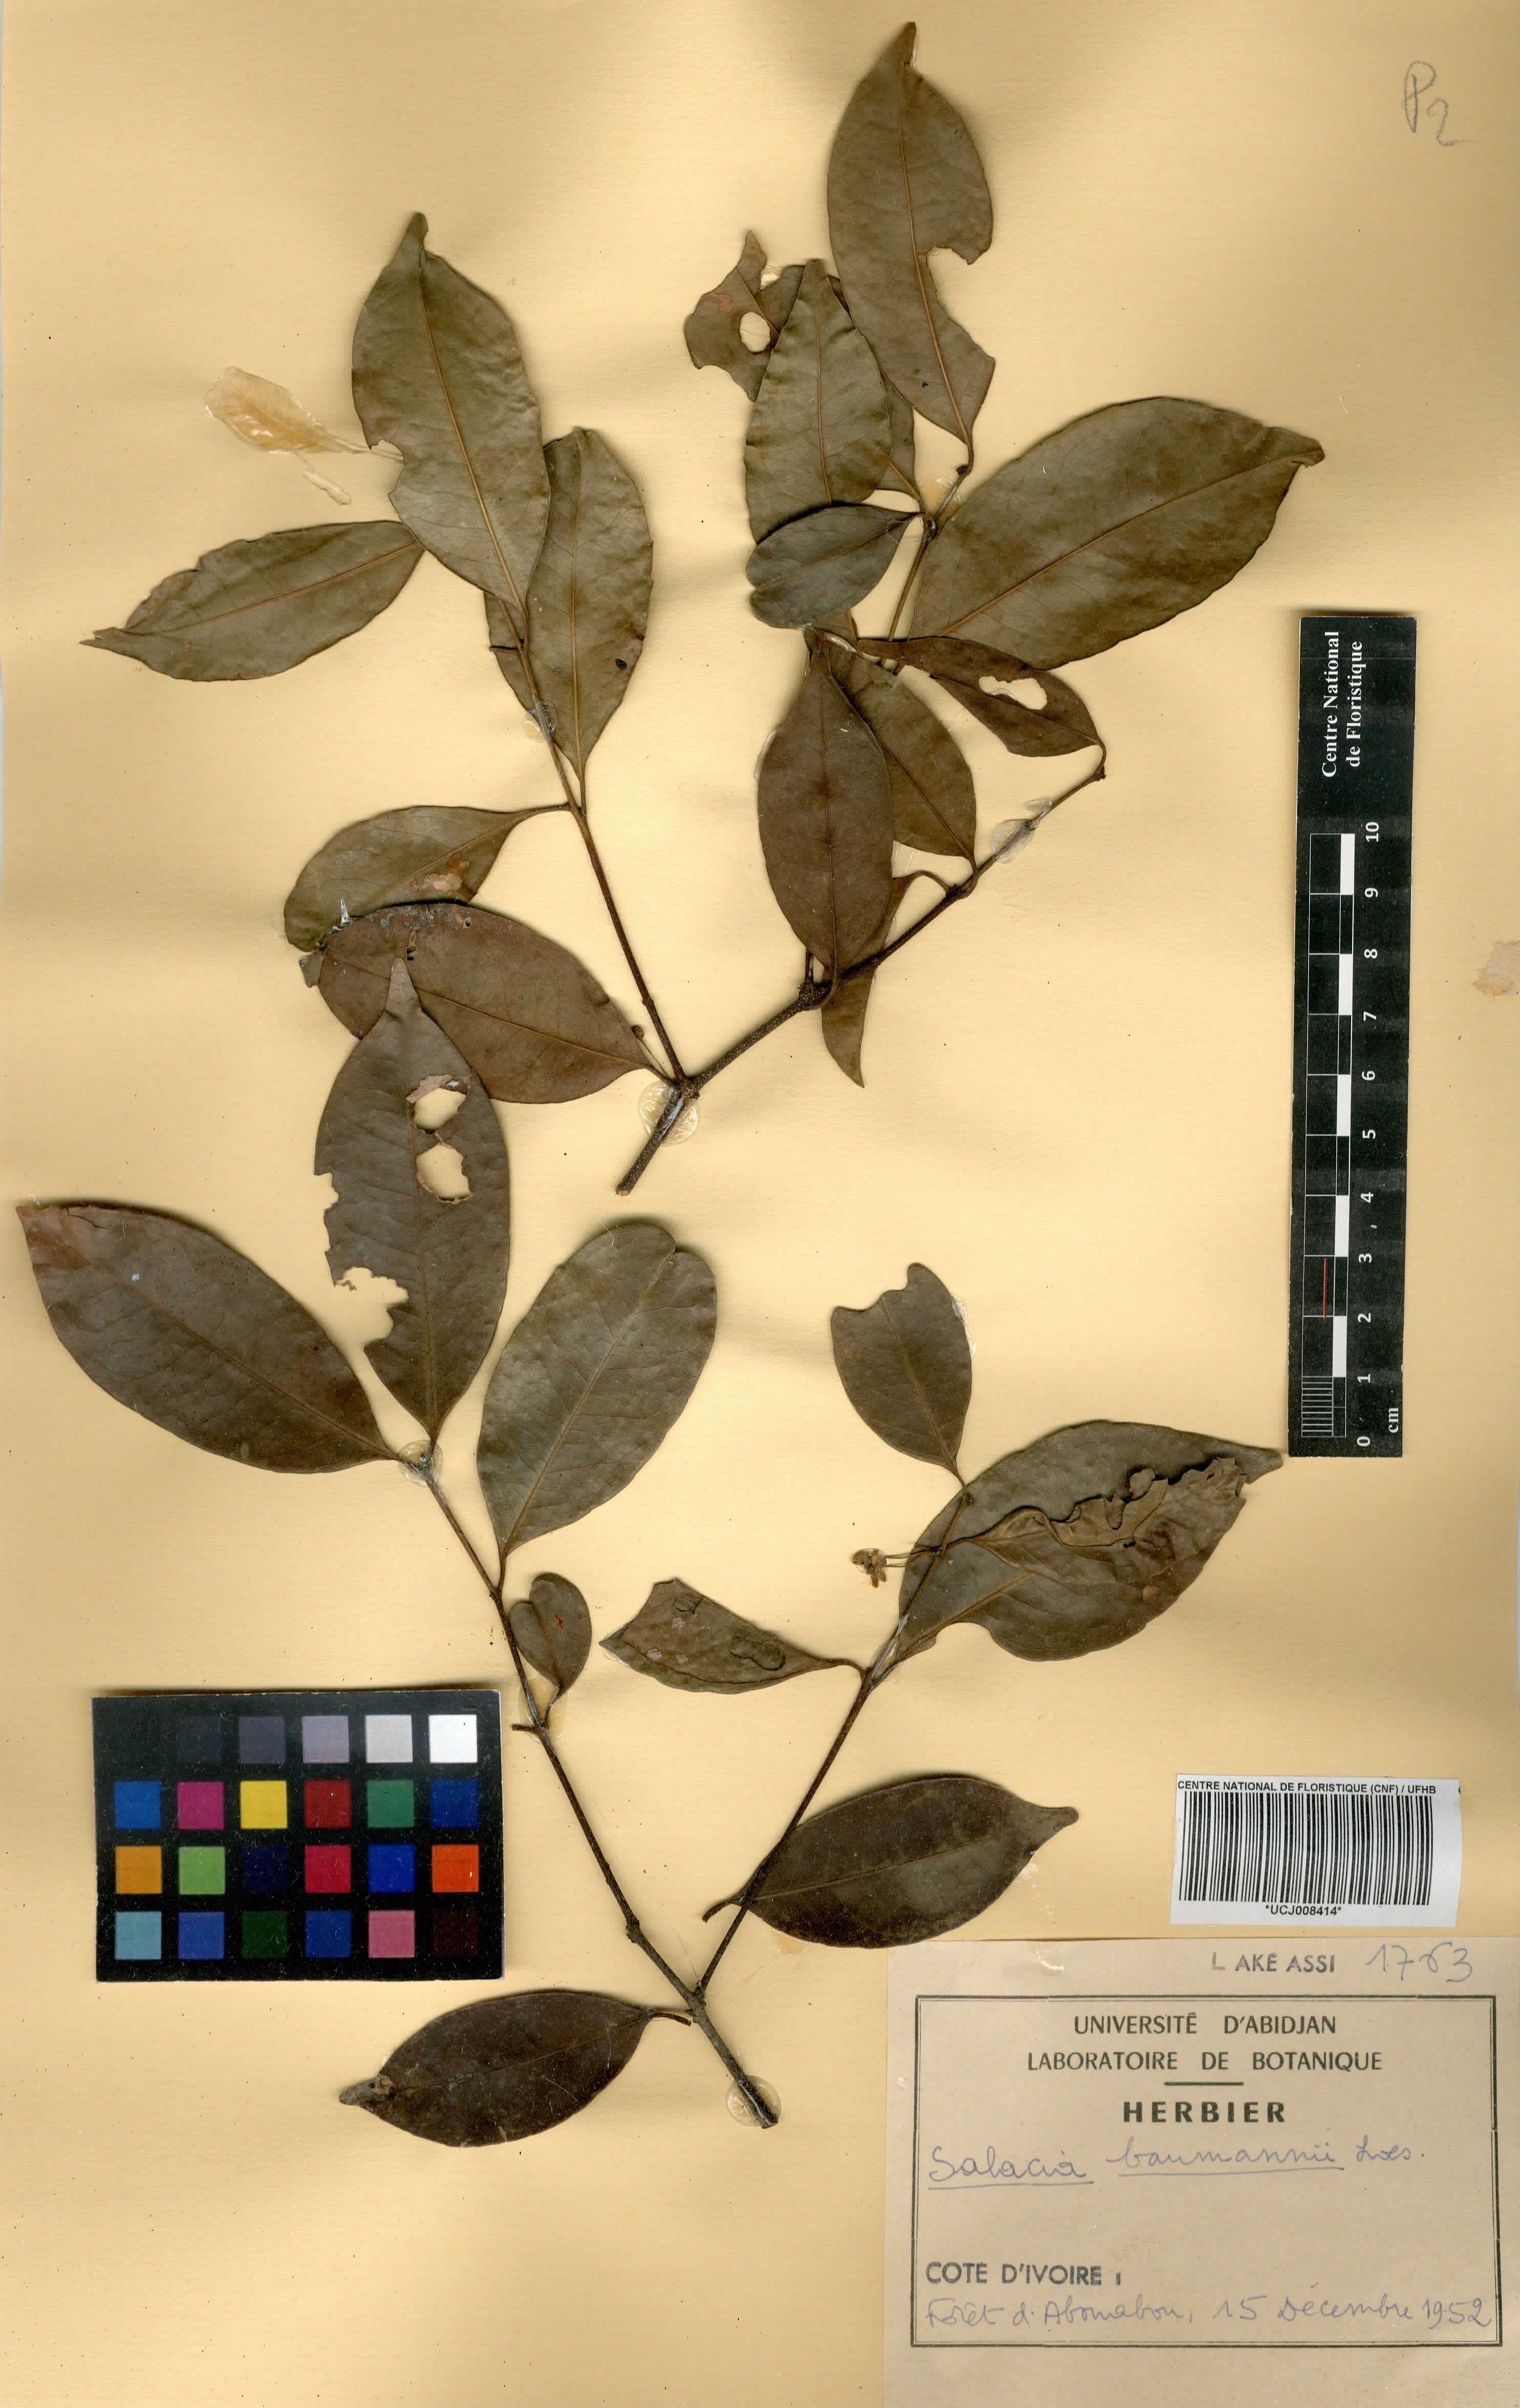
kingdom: Plantae
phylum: Tracheophyta
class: Magnoliopsida
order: Celastrales
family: Celastraceae
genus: Salacia
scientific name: Salacia leptoclada
